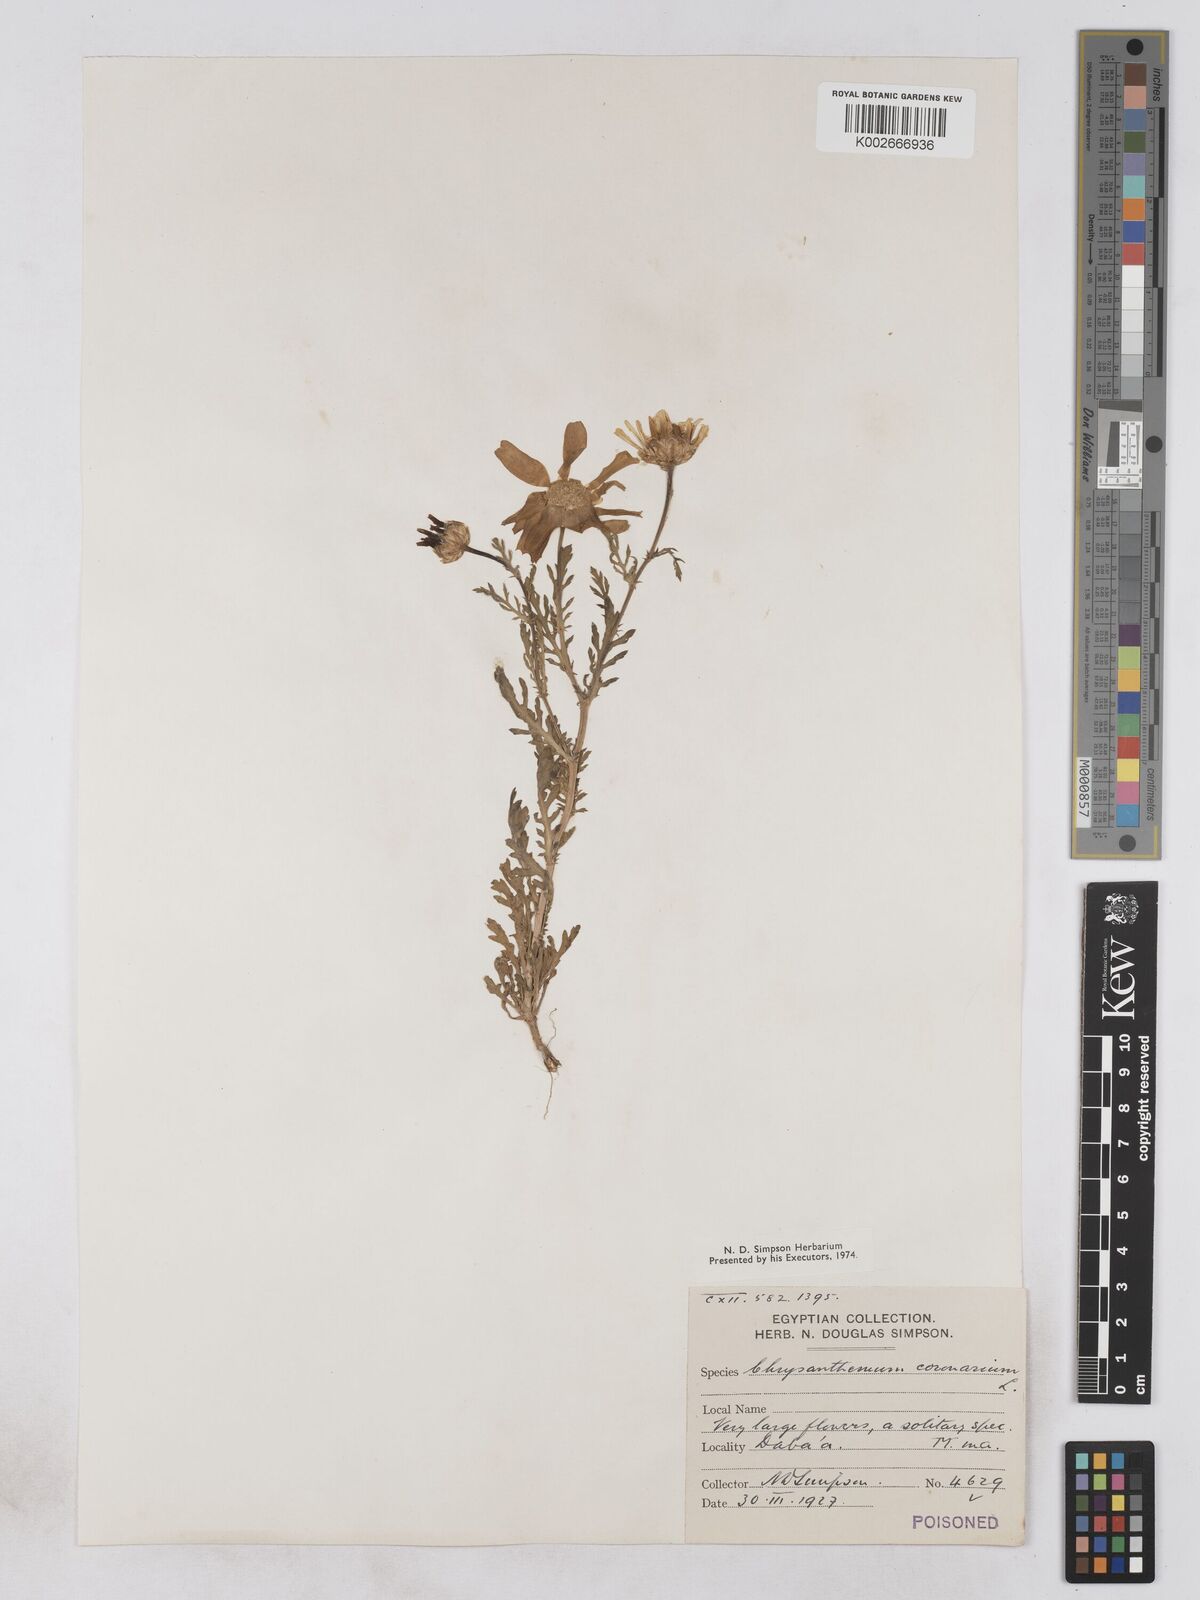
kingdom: Plantae
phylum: Tracheophyta
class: Magnoliopsida
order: Asterales
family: Asteraceae
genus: Glebionis
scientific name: Glebionis coronaria
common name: Crowndaisy
